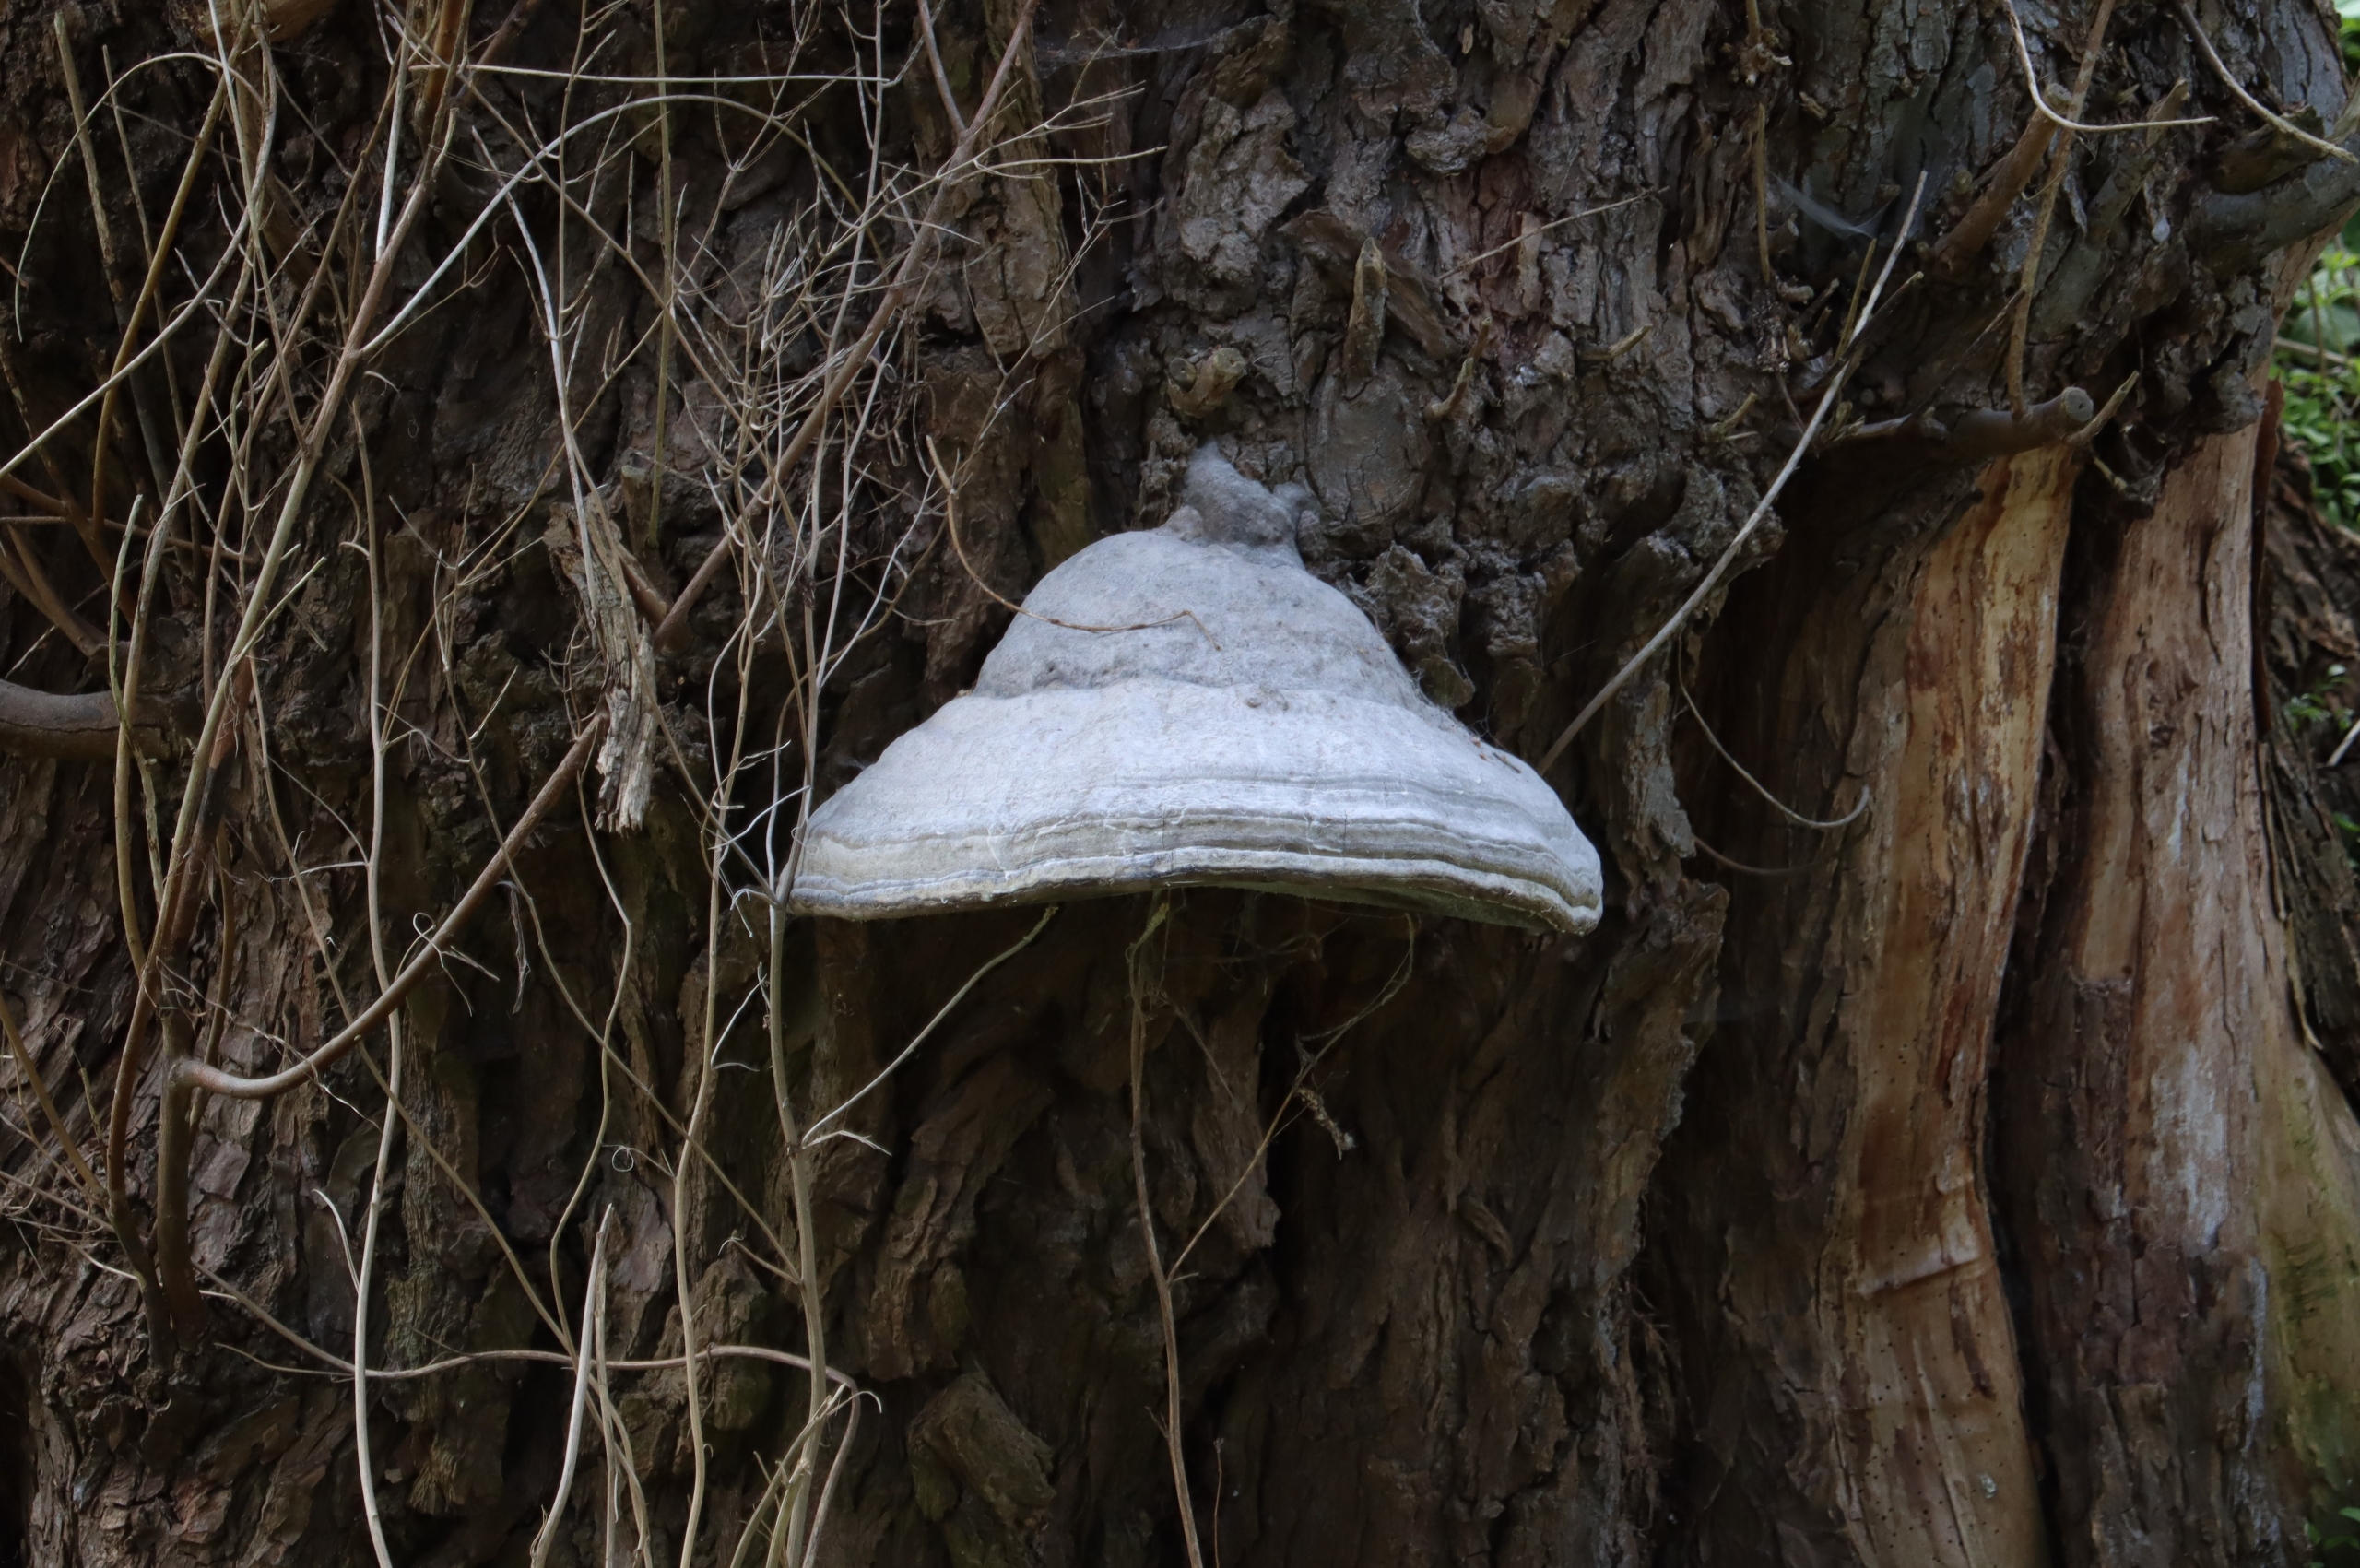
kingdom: Fungi
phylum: Basidiomycota
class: Agaricomycetes
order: Polyporales
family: Polyporaceae
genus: Fomes
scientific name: Fomes fomentarius
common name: Tøndersvamp
